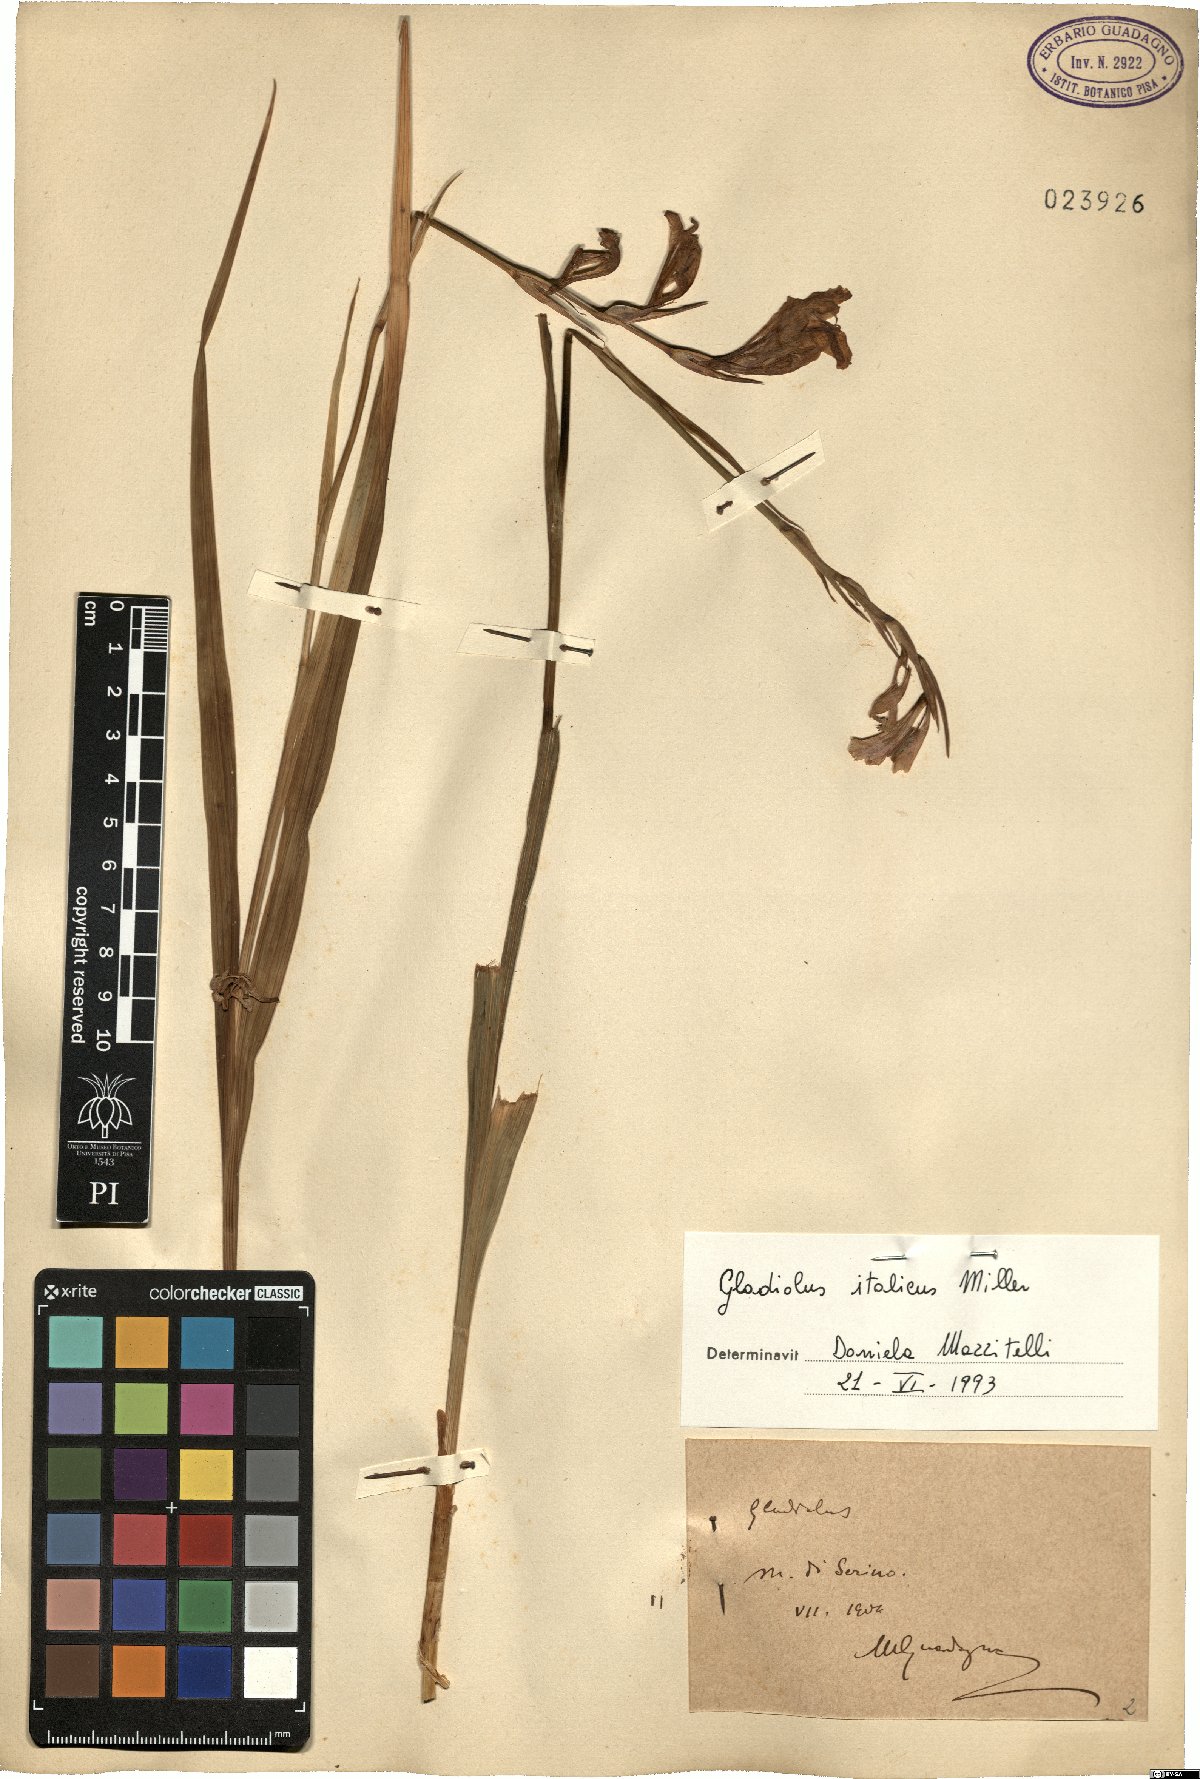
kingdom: Plantae
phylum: Tracheophyta
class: Liliopsida
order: Asparagales
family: Iridaceae
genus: Gladiolus
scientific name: Gladiolus italicus
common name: Field gladiolus
